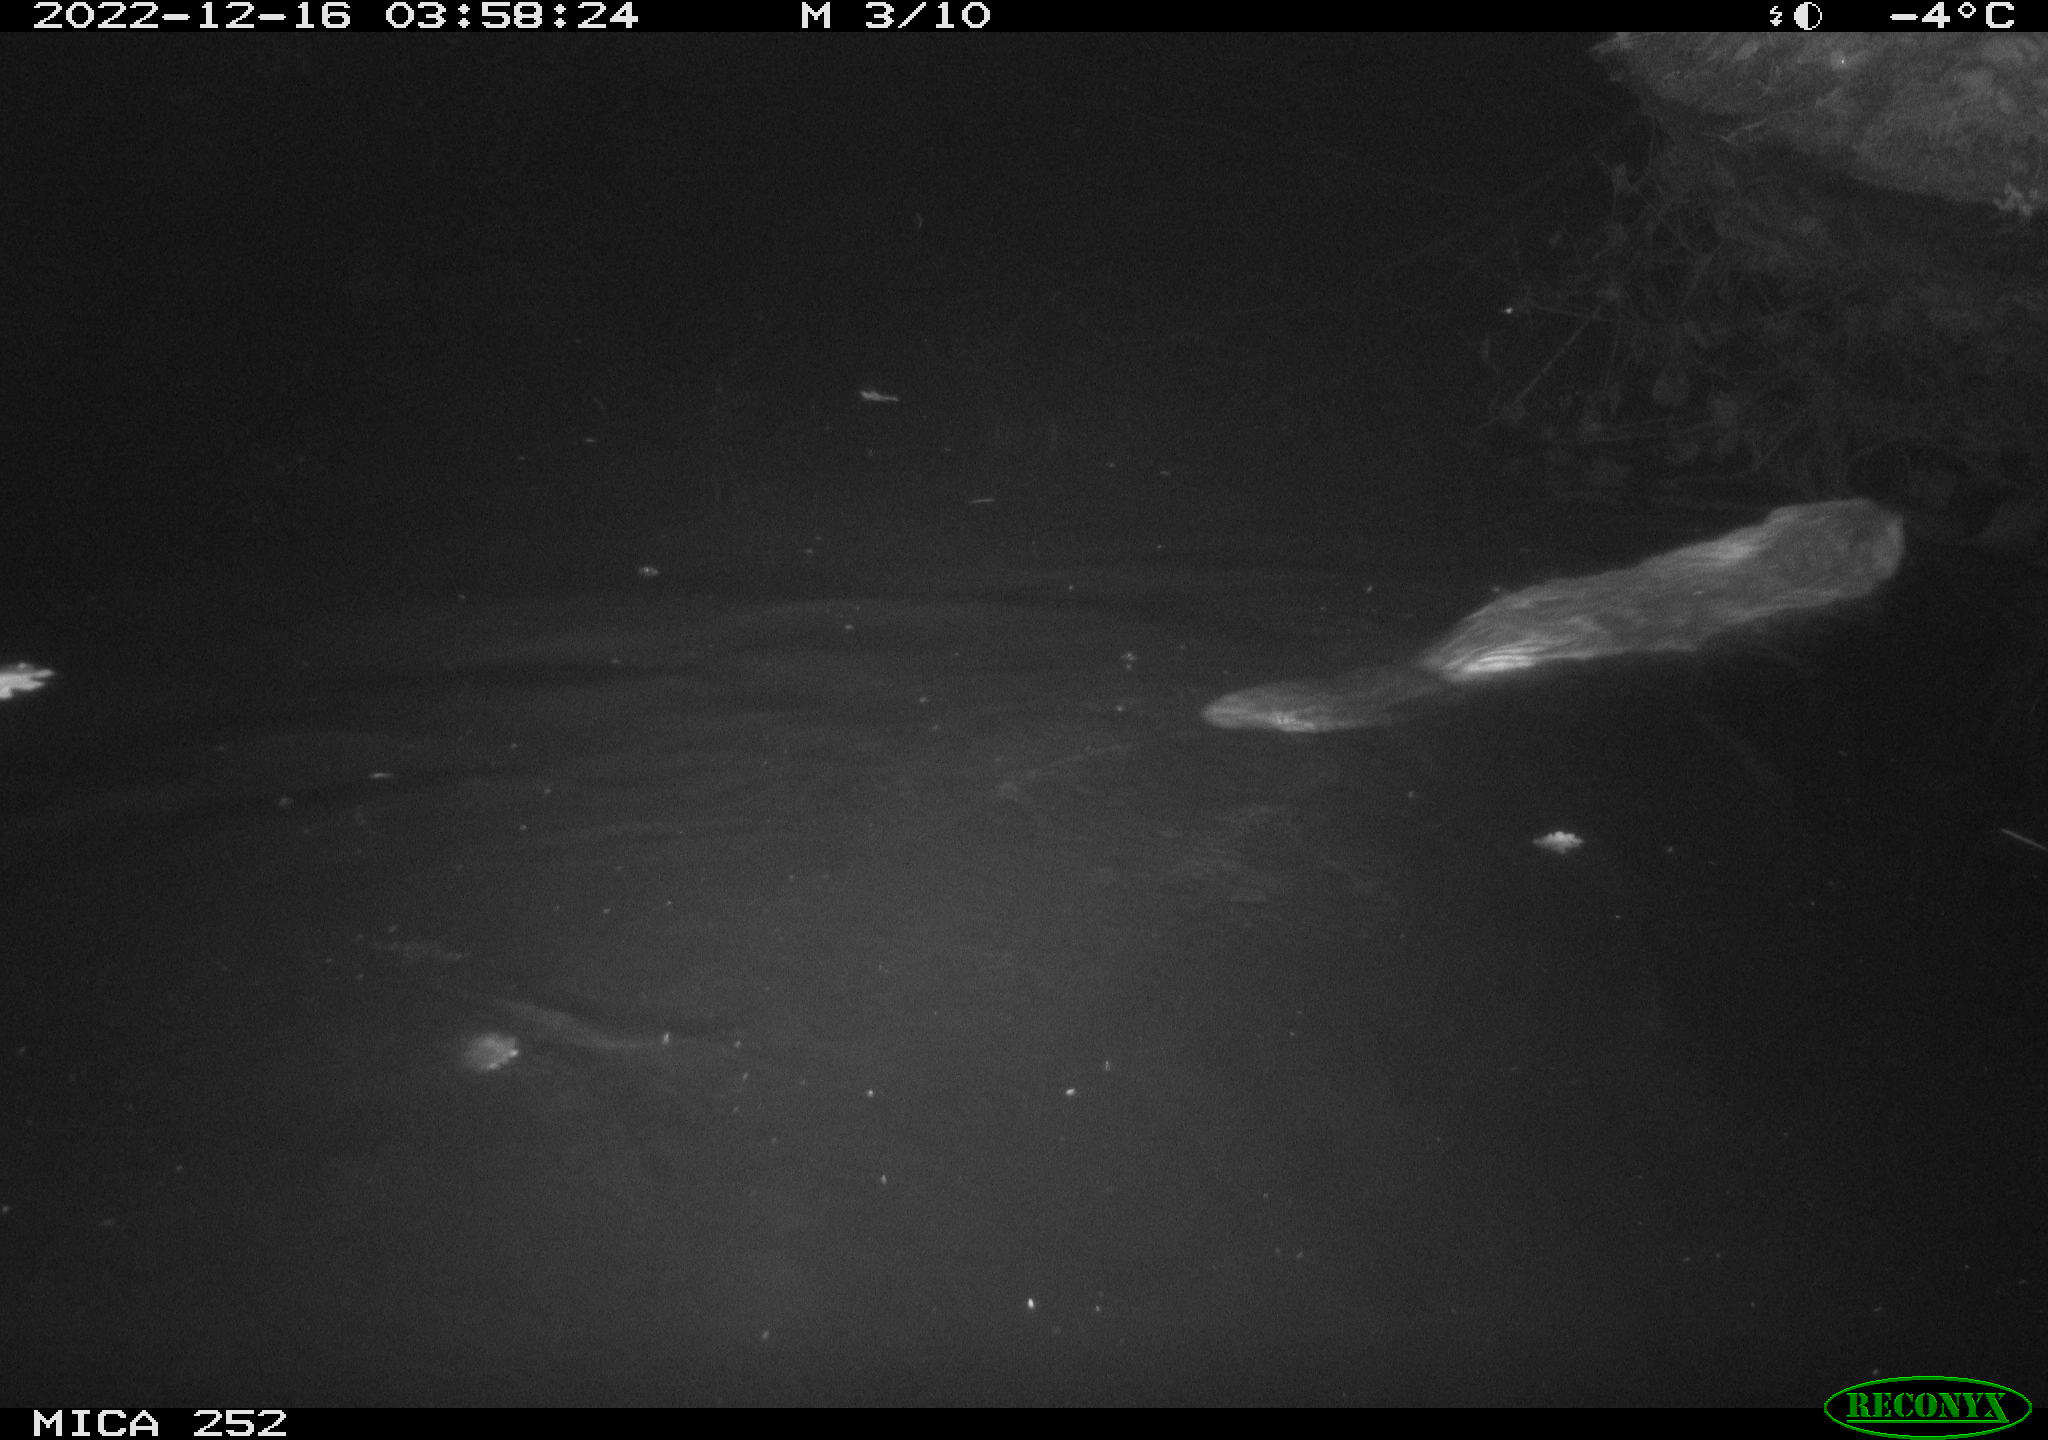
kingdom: Animalia
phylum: Chordata
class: Mammalia
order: Rodentia
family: Castoridae
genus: Castor
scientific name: Castor fiber
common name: Eurasian beaver
